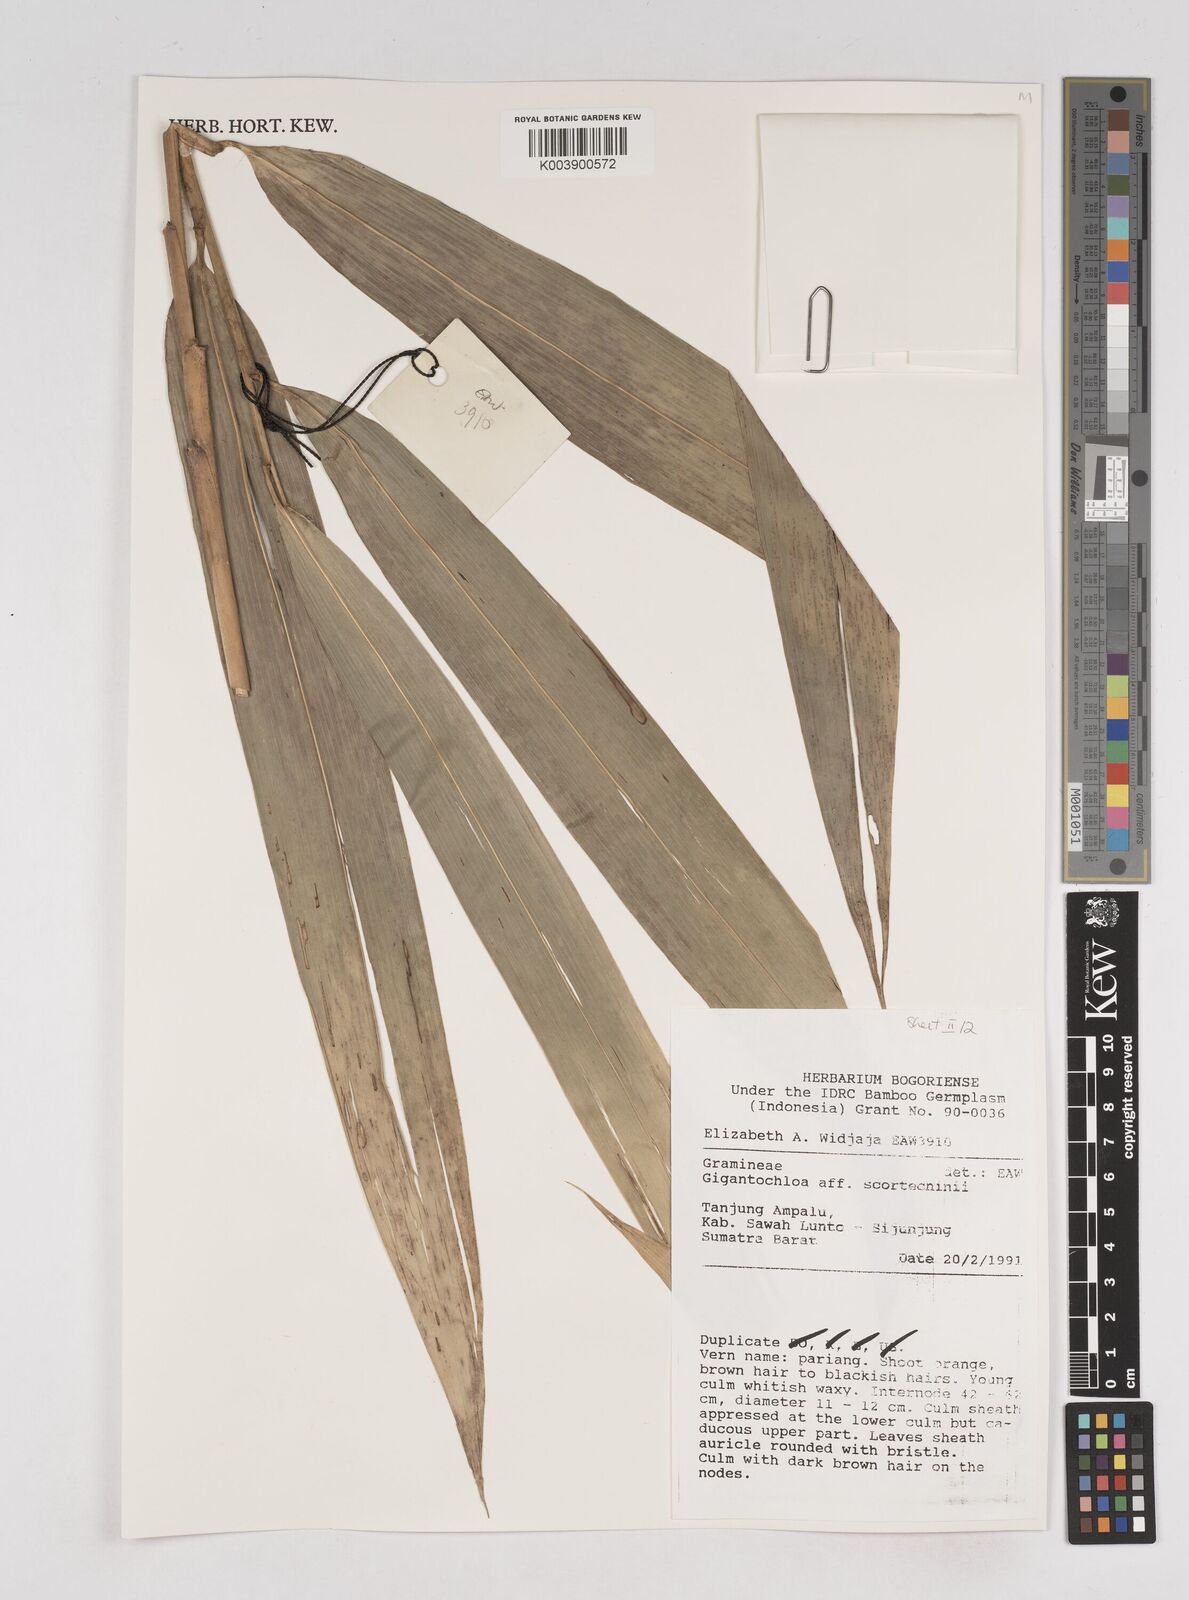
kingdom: Plantae
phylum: Tracheophyta
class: Liliopsida
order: Poales
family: Poaceae
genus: Gigantochloa
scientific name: Gigantochloa scortechinii
